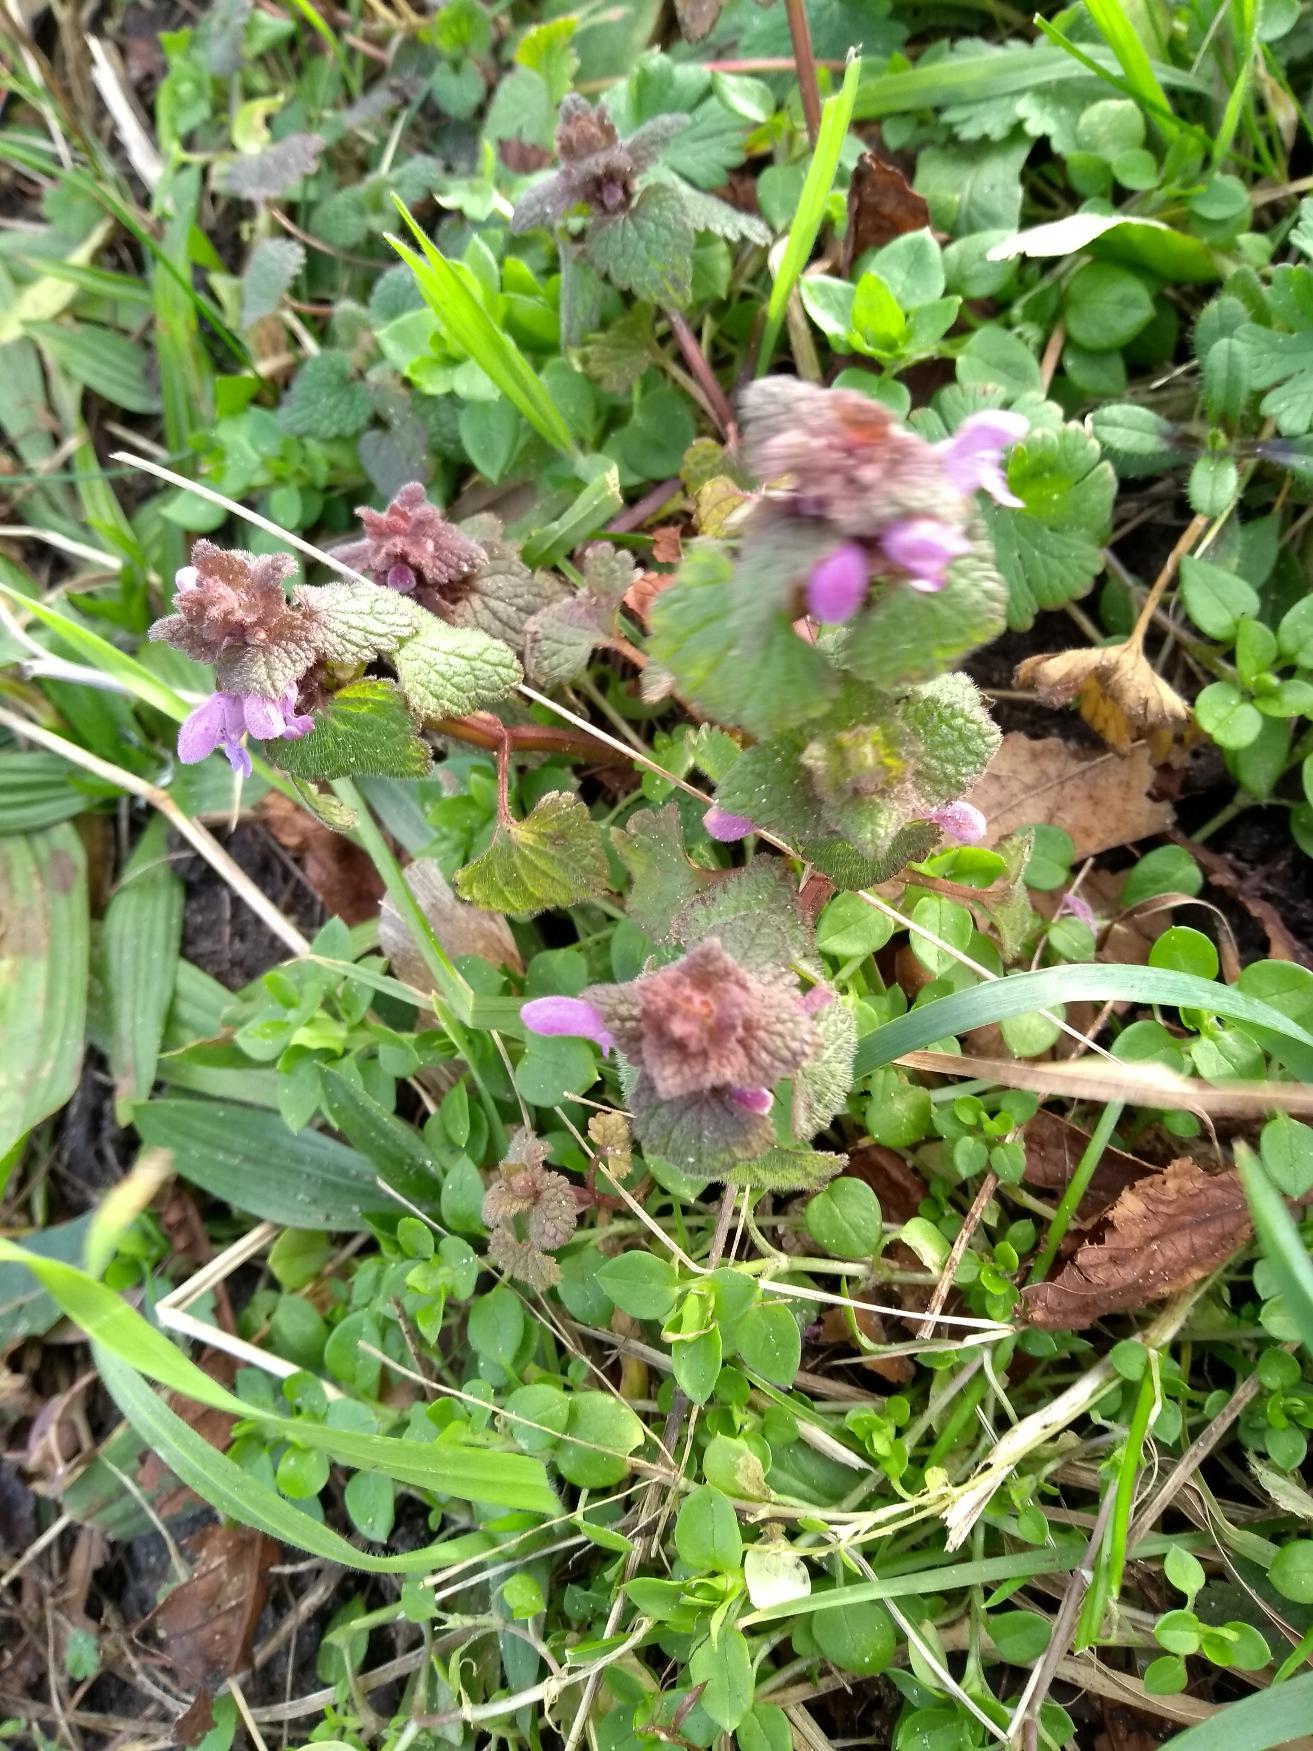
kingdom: Plantae
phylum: Tracheophyta
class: Magnoliopsida
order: Lamiales
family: Lamiaceae
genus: Lamium
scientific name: Lamium purpureum
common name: Rød tvetand
